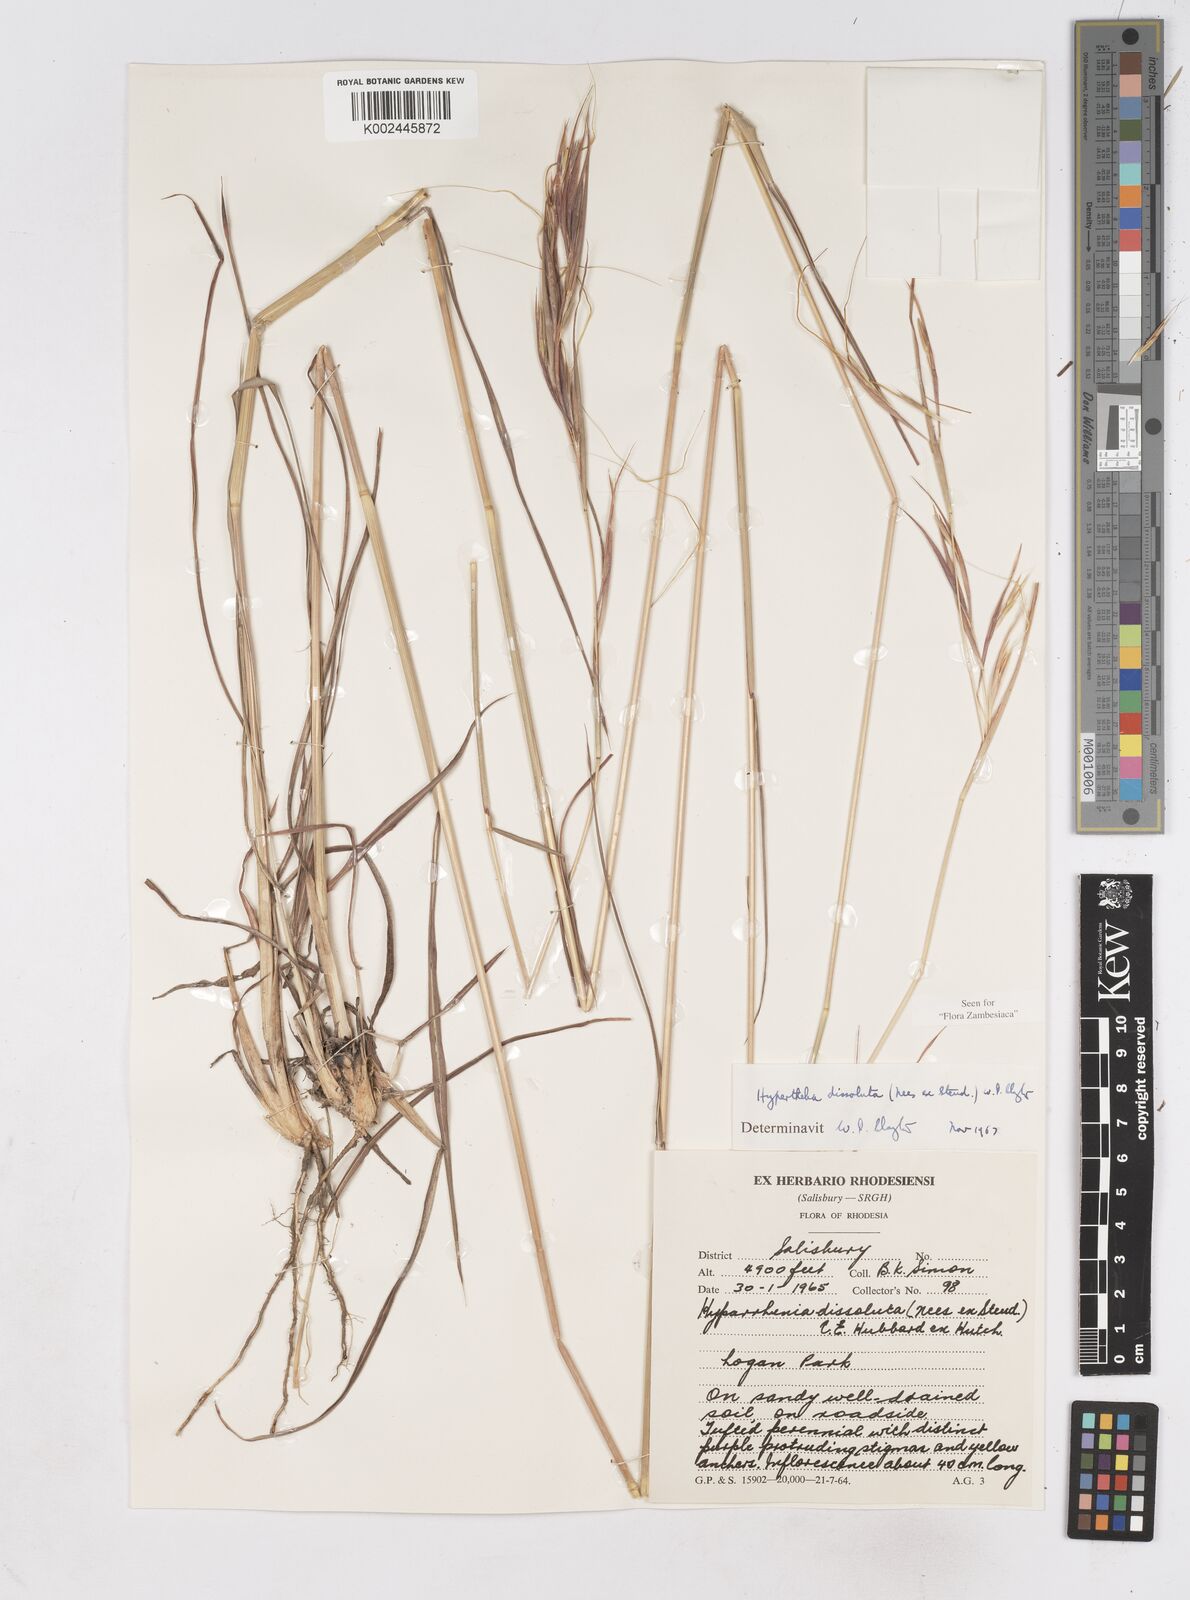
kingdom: Plantae
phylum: Tracheophyta
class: Liliopsida
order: Poales
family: Poaceae
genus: Hyperthelia
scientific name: Hyperthelia dissoluta
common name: Yellow thatching grass
